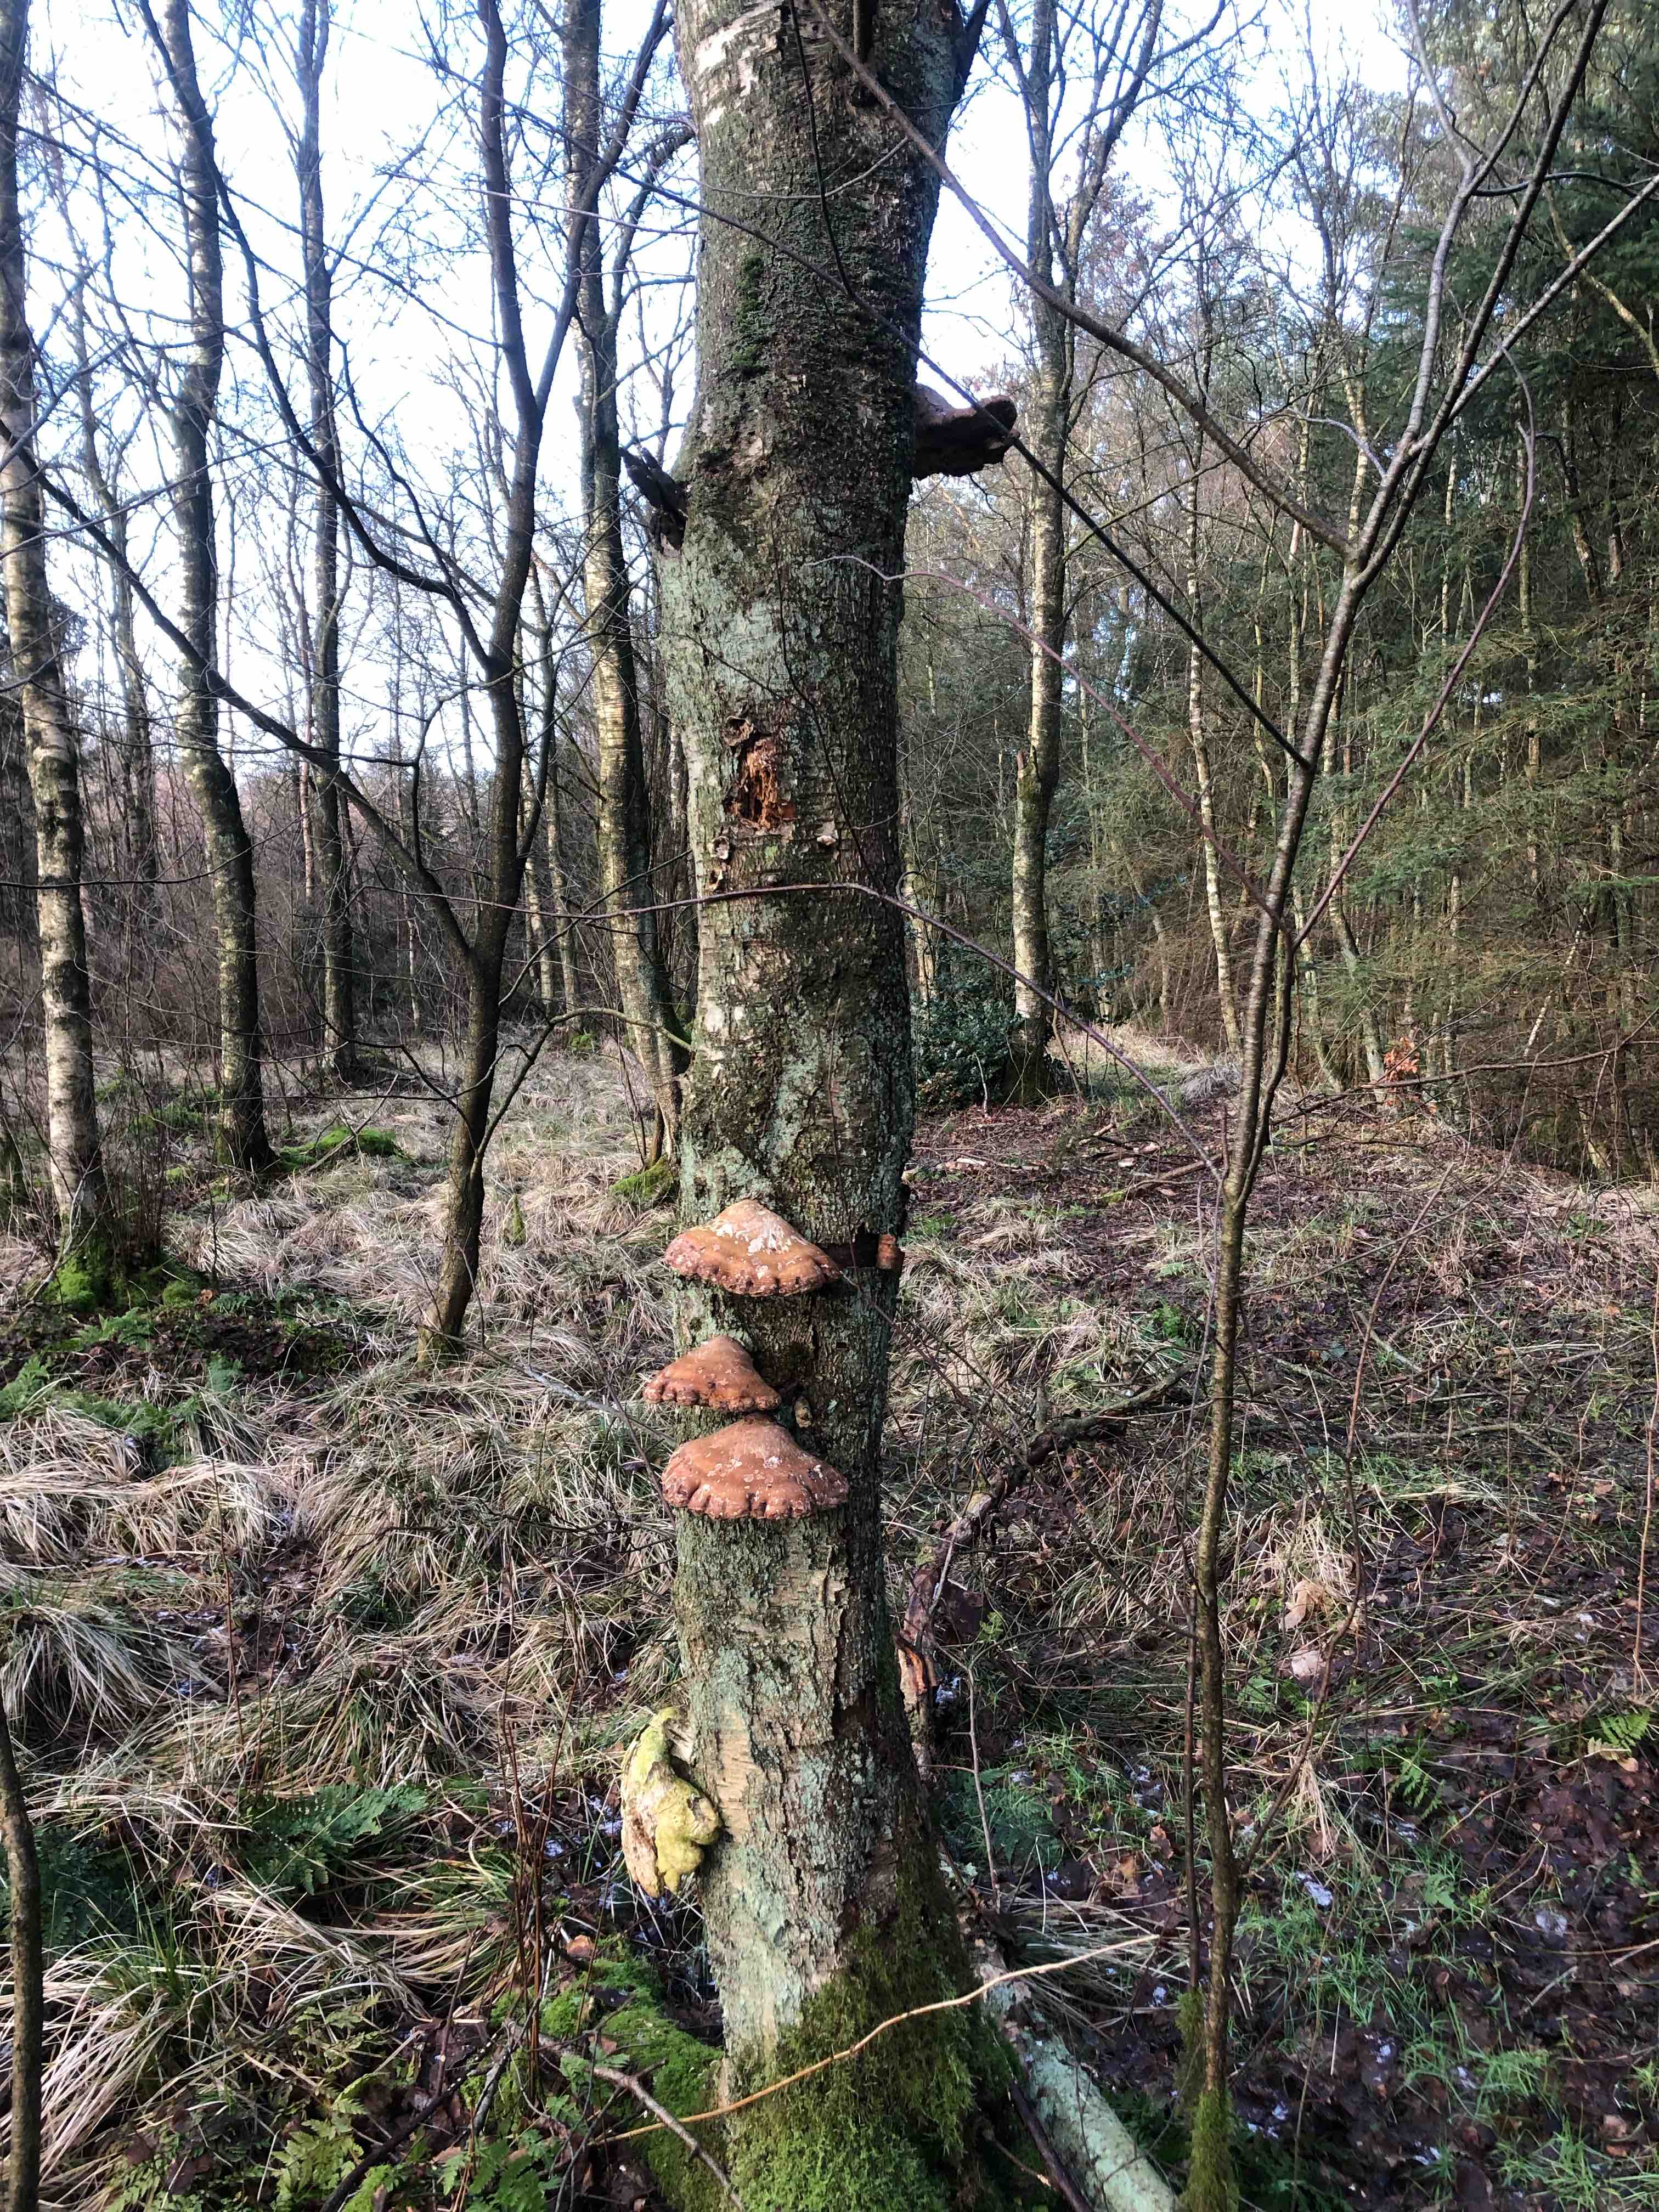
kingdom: Fungi
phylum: Basidiomycota
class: Agaricomycetes
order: Polyporales
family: Fomitopsidaceae
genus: Fomitopsis
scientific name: Fomitopsis betulina
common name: birkeporesvamp
